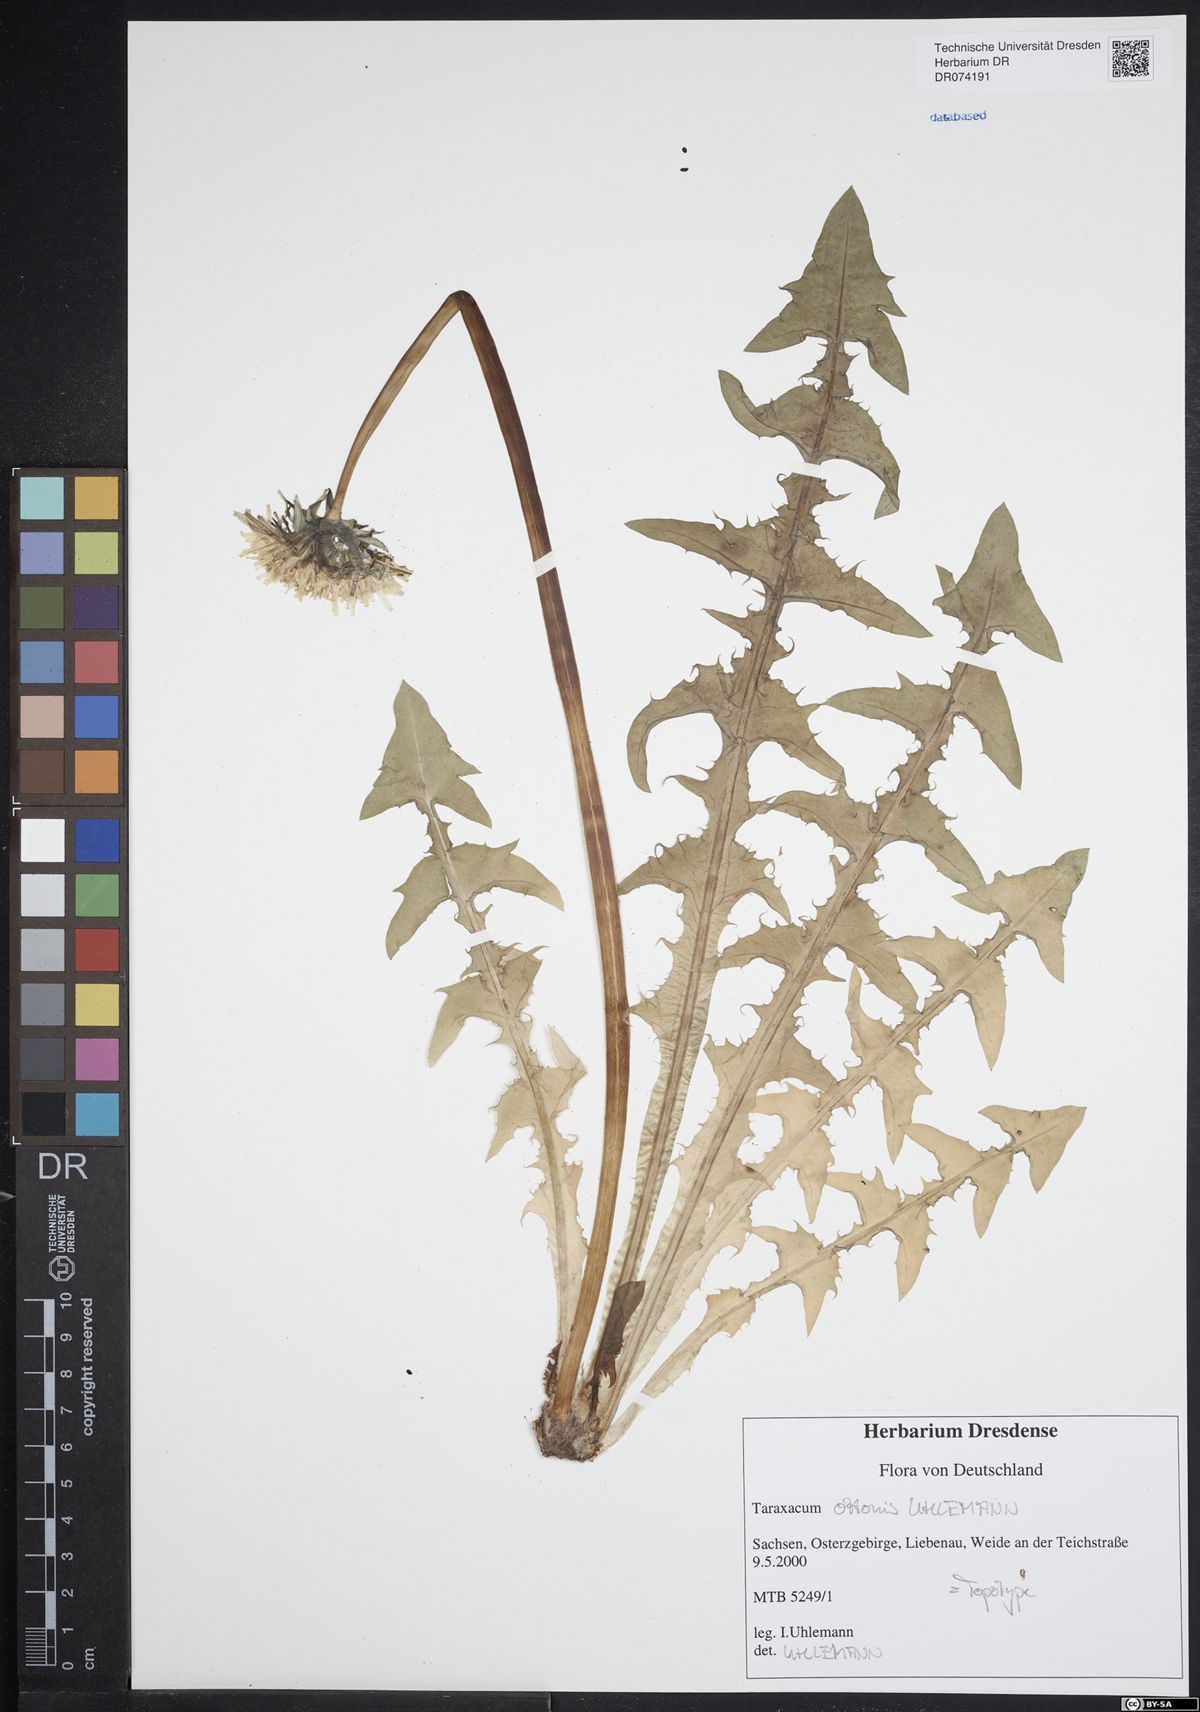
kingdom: Plantae
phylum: Tracheophyta
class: Magnoliopsida
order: Asterales
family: Asteraceae
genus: Taraxacum
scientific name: Taraxacum ottonis
